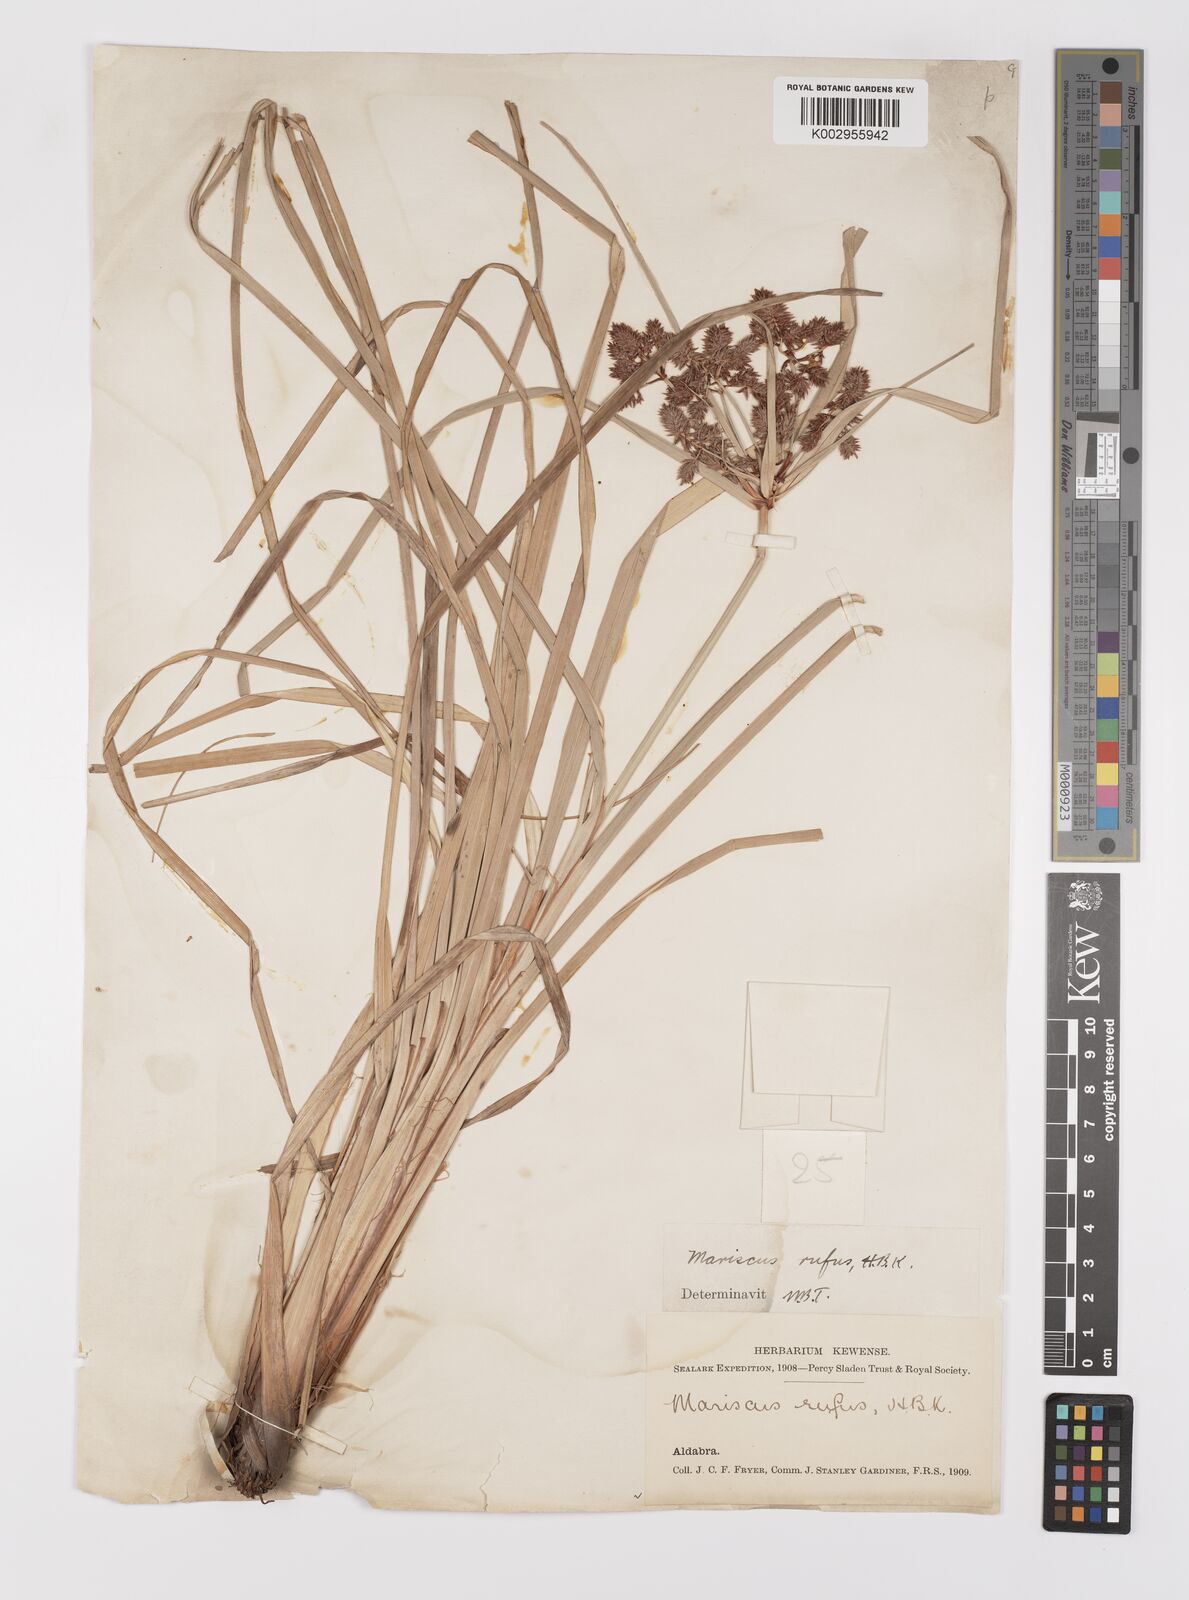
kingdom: Plantae
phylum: Tracheophyta
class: Liliopsida
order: Poales
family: Cyperaceae
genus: Cyperus
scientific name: Cyperus ligularis
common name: Swamp flat sedge
